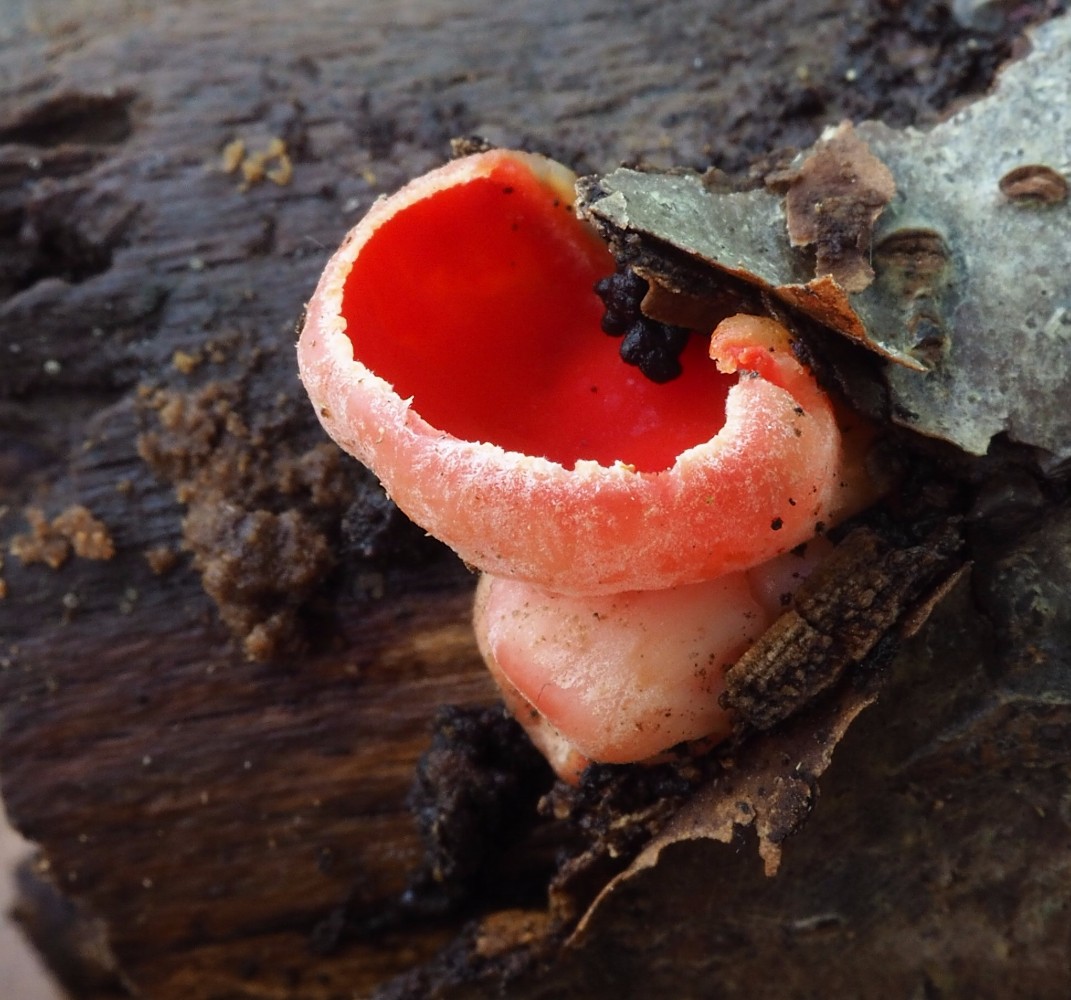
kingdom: Fungi
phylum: Ascomycota
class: Pezizomycetes
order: Pezizales
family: Sarcoscyphaceae
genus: Sarcoscypha
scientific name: Sarcoscypha coccinea
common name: skarlagen-pragtbæger
